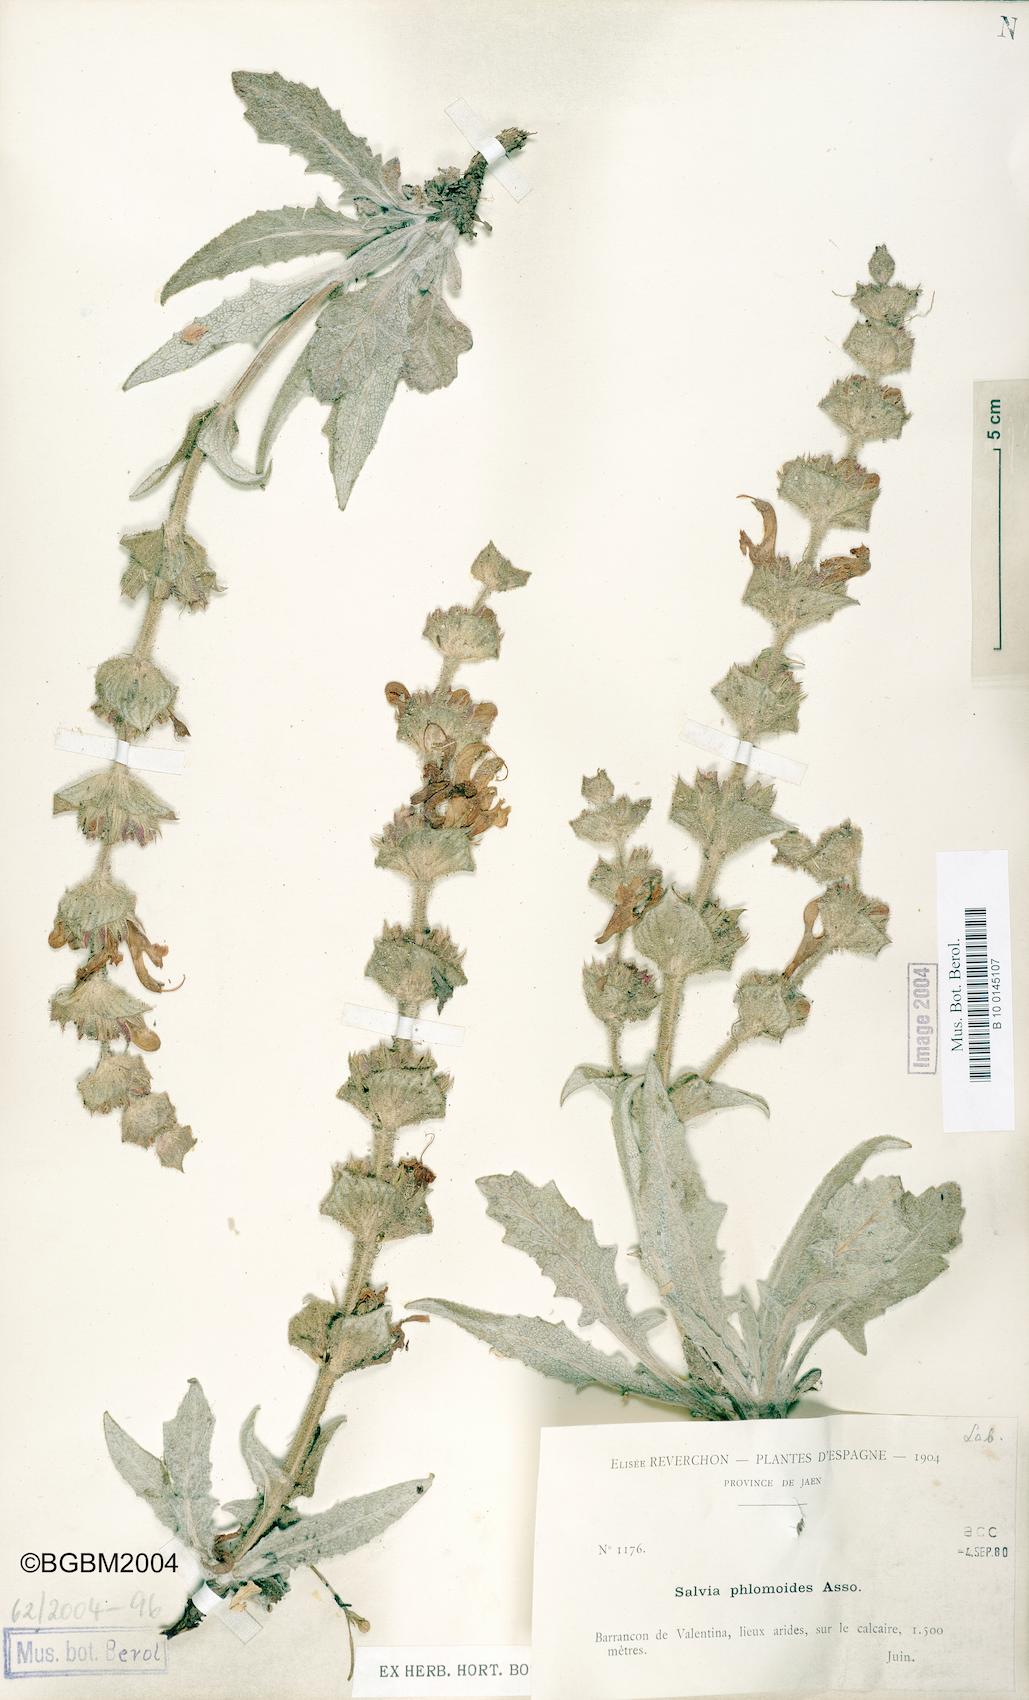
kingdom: Plantae
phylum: Tracheophyta
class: Magnoliopsida
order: Lamiales
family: Lamiaceae
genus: Salvia
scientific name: Salvia phlomoides
